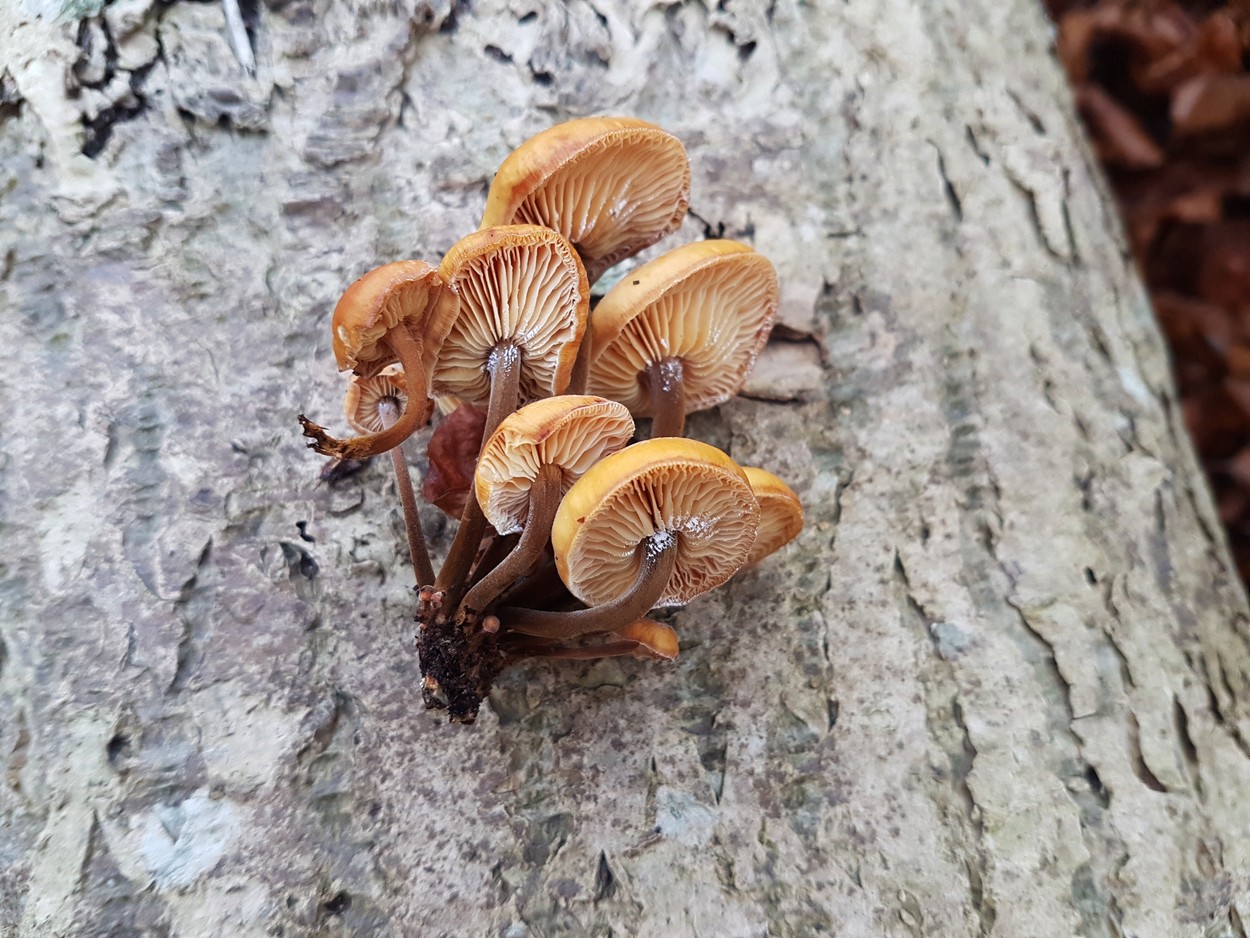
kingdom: Fungi
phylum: Basidiomycota
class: Agaricomycetes
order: Agaricales
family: Physalacriaceae
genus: Flammulina
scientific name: Flammulina velutipes
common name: gul fløjlsfod
